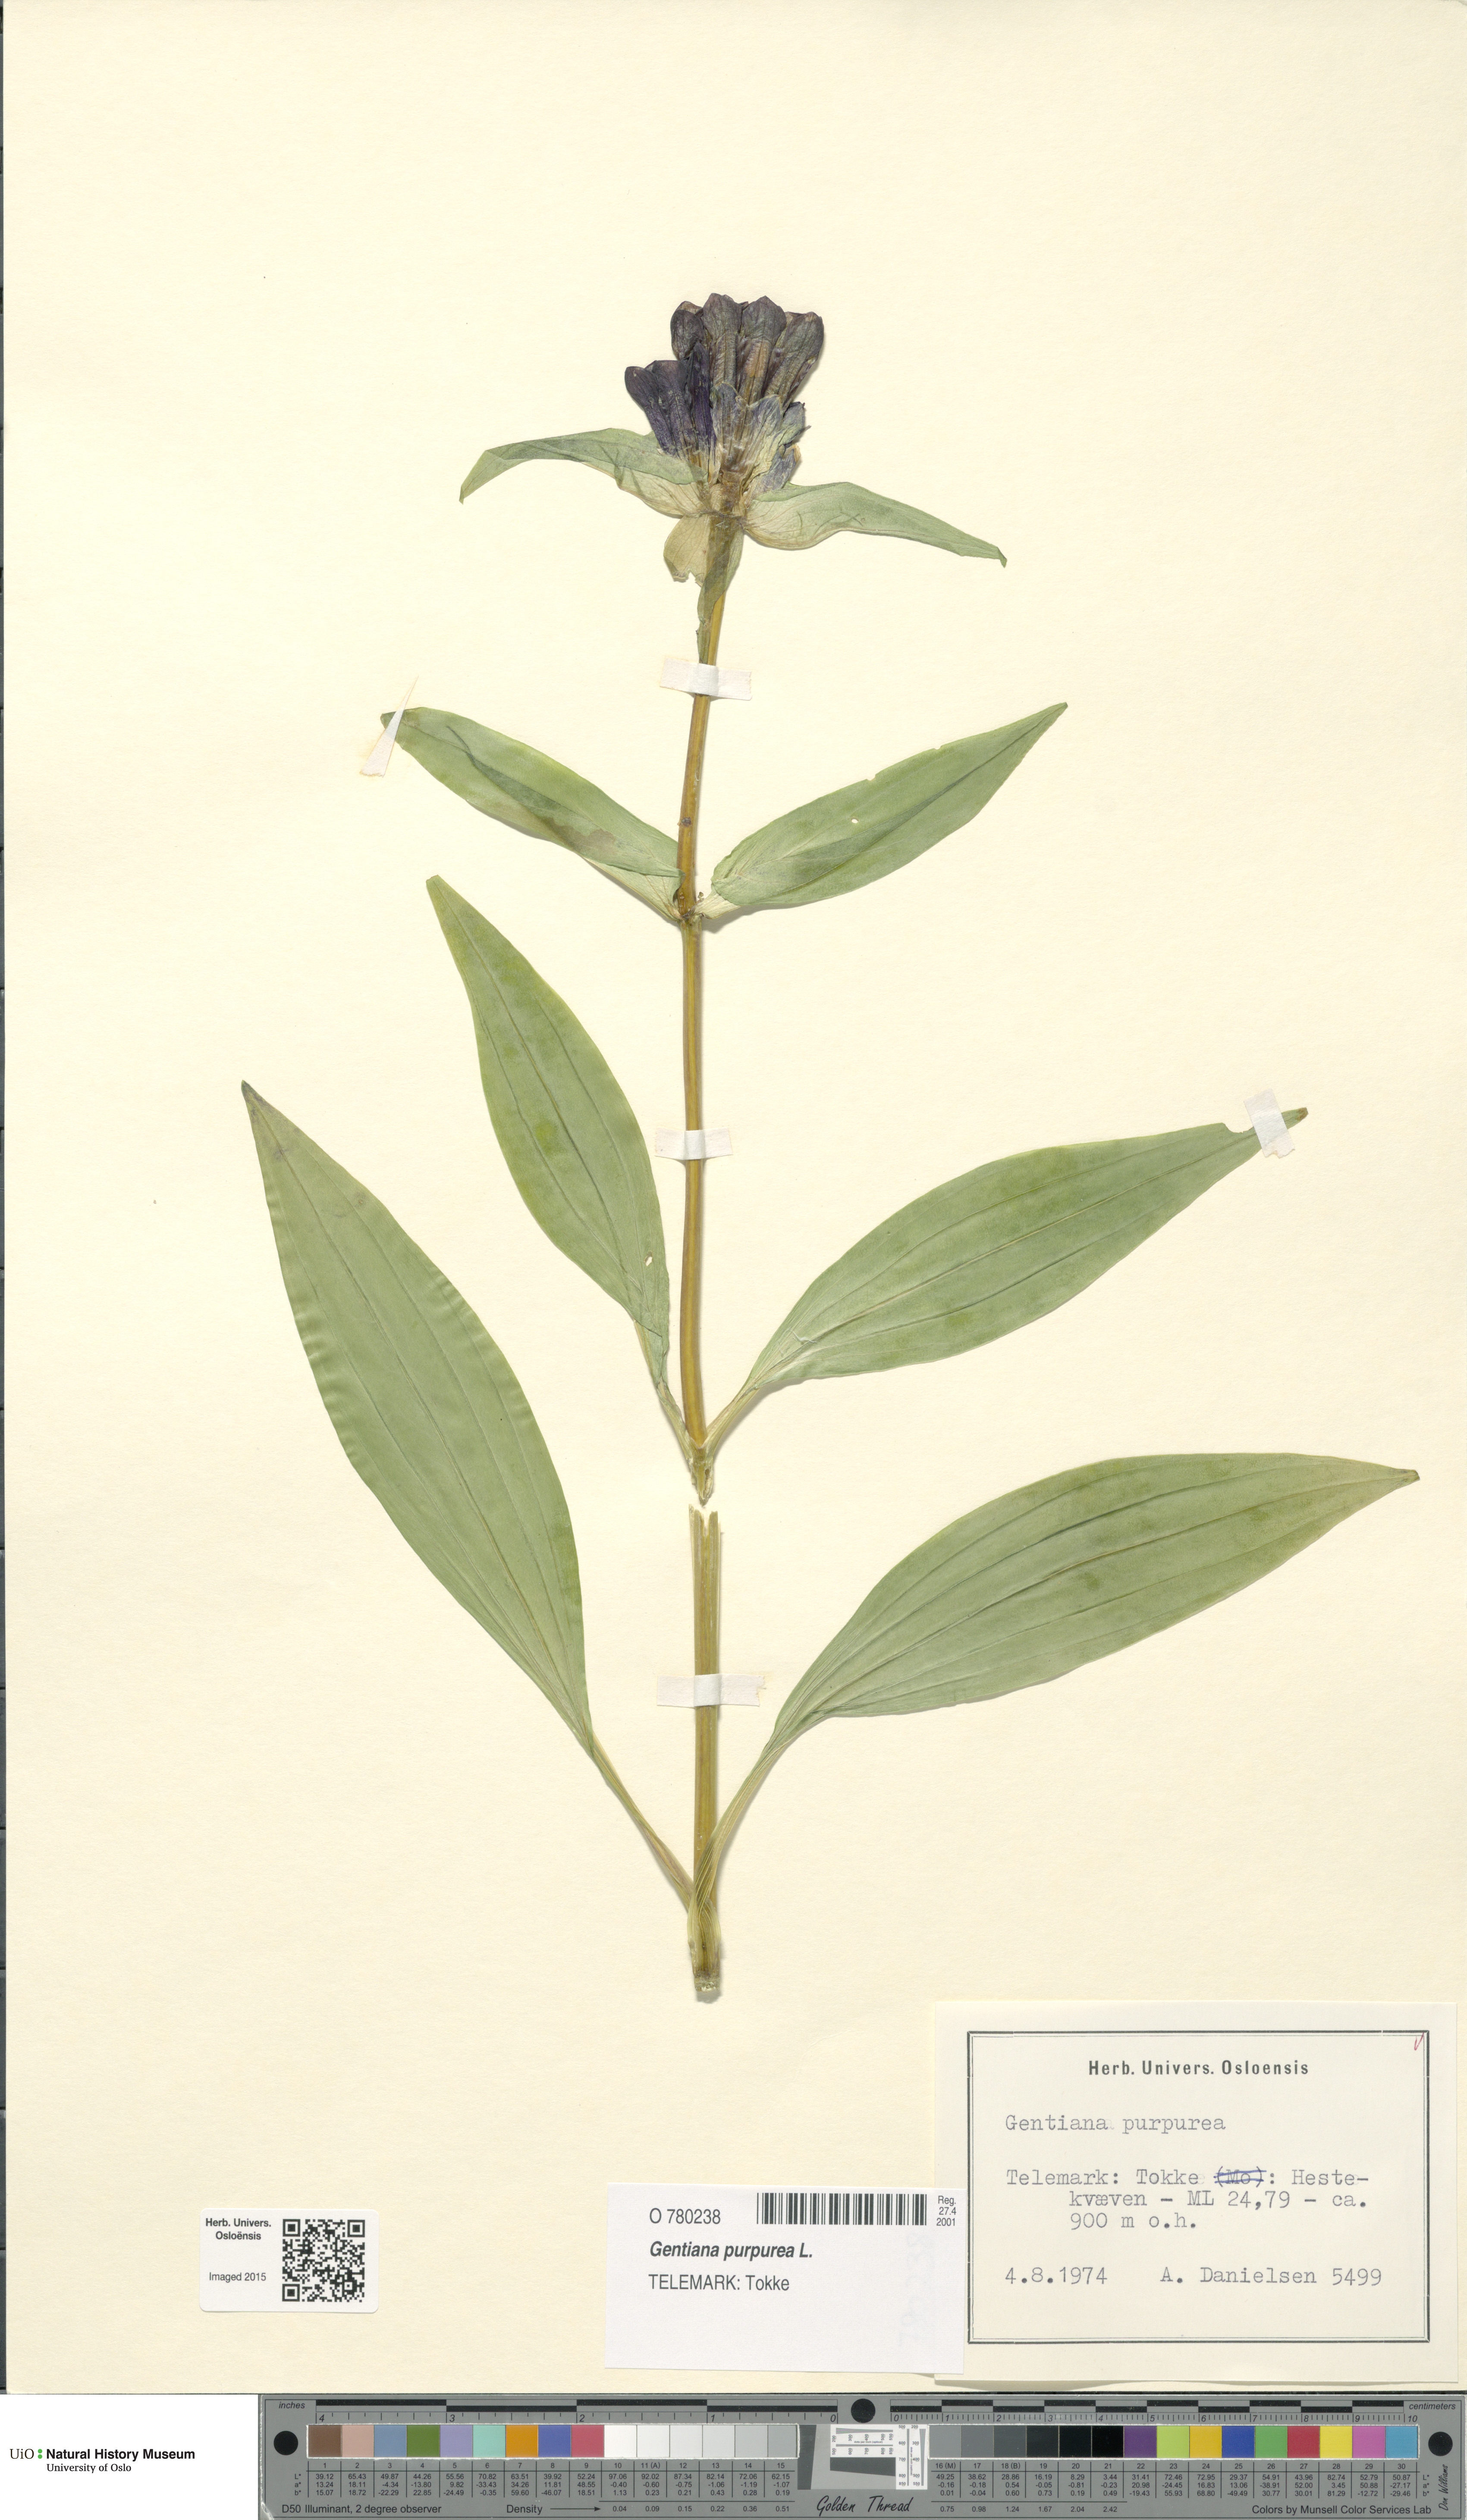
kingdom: Plantae
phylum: Tracheophyta
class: Magnoliopsida
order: Gentianales
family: Gentianaceae
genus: Gentiana
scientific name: Gentiana purpurea
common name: Purple gentian
